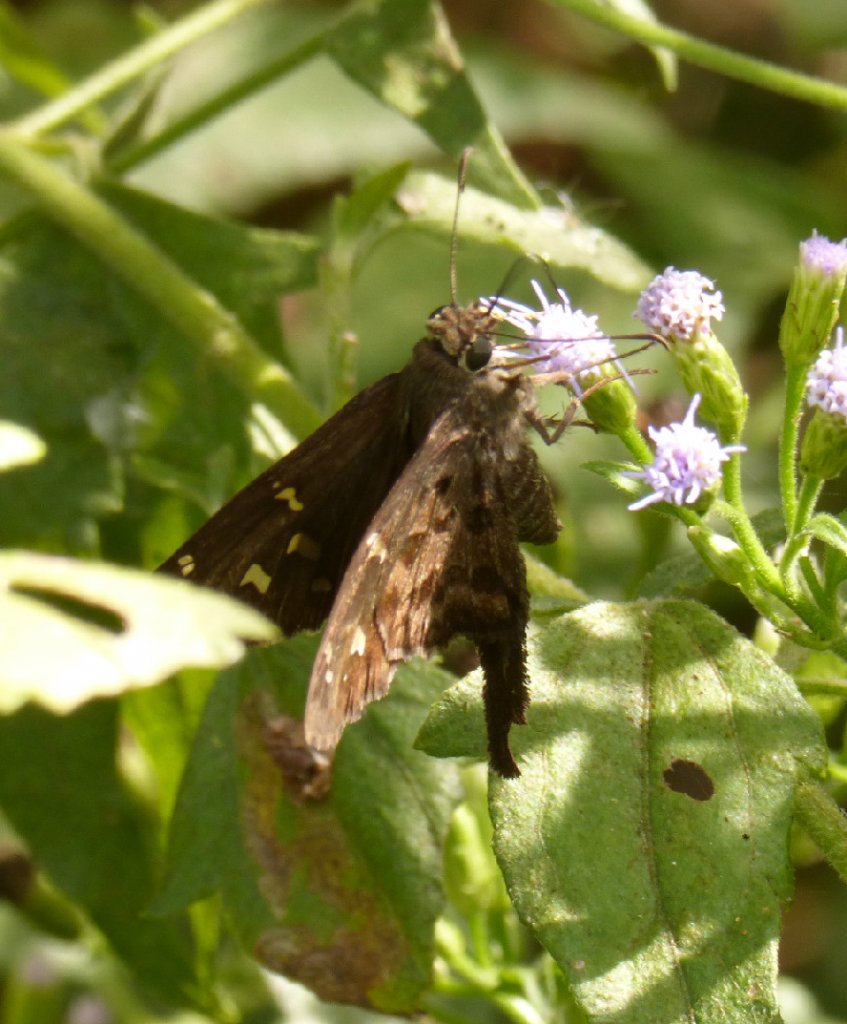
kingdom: Animalia
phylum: Arthropoda
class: Insecta
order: Lepidoptera
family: Hesperiidae
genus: Urbanus
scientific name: Urbanus dorantes
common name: Dorantes Longtail
